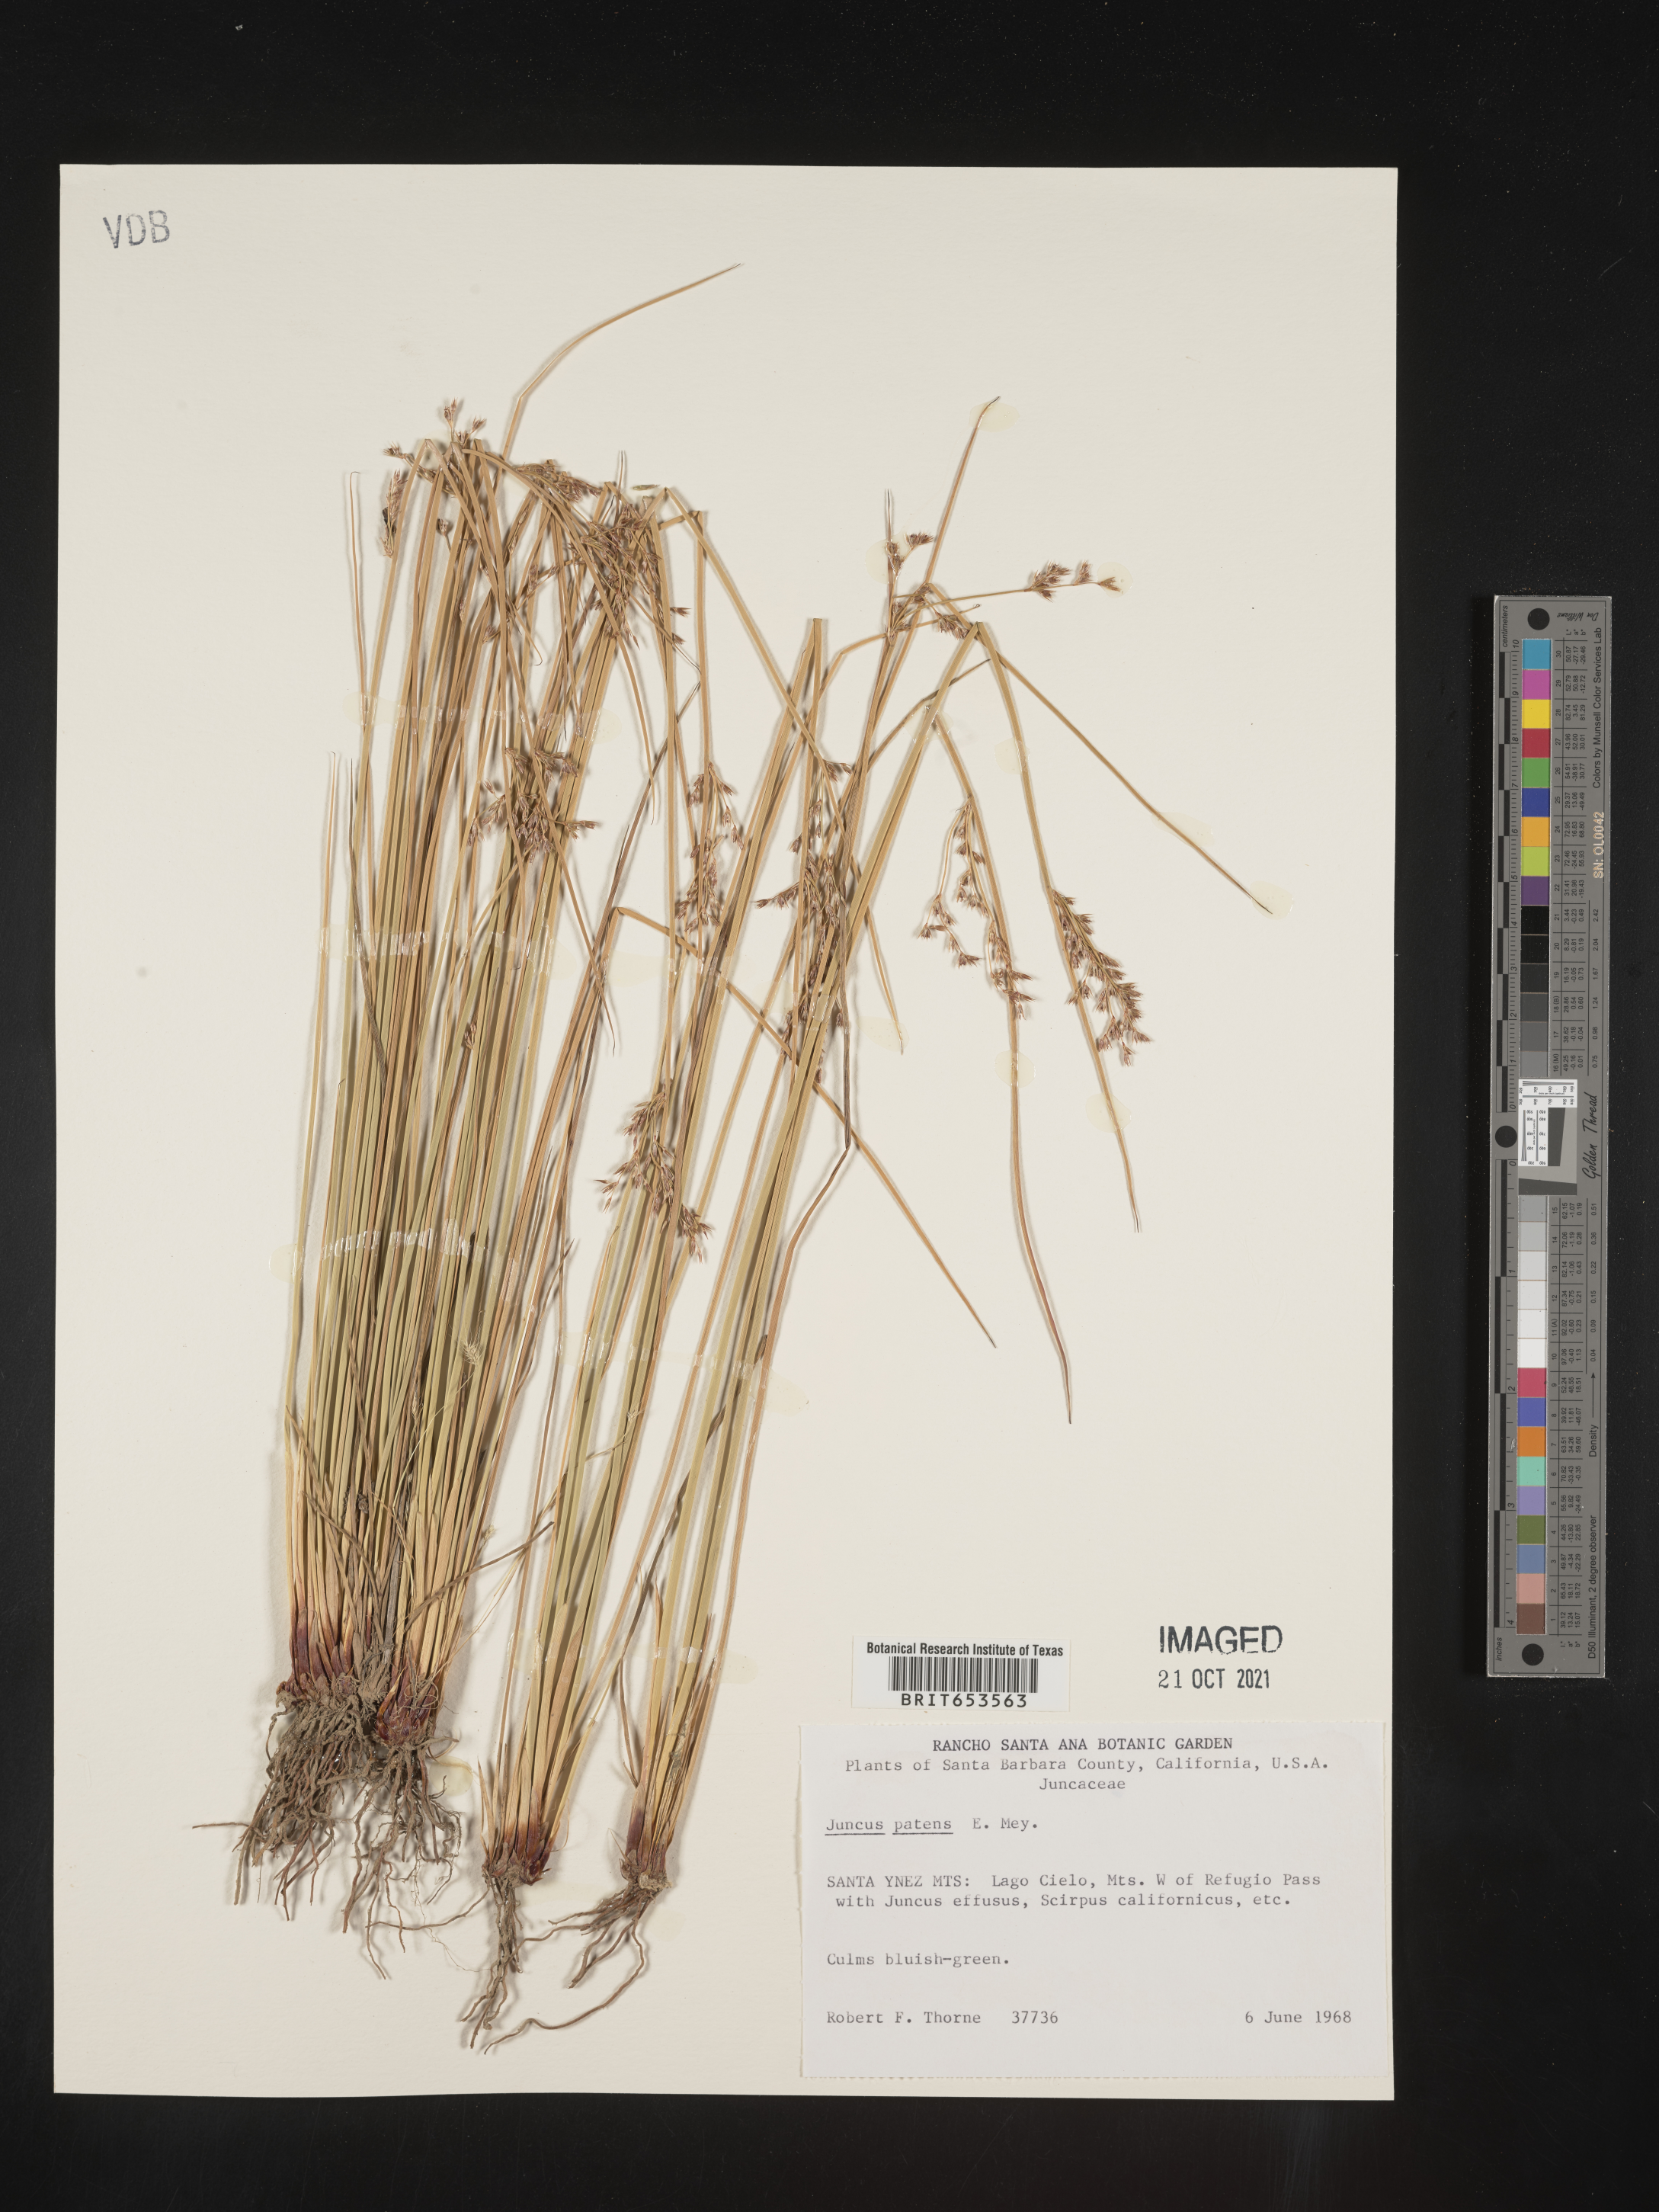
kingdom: Plantae
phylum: Tracheophyta
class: Liliopsida
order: Poales
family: Juncaceae
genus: Juncus
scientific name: Juncus patens
